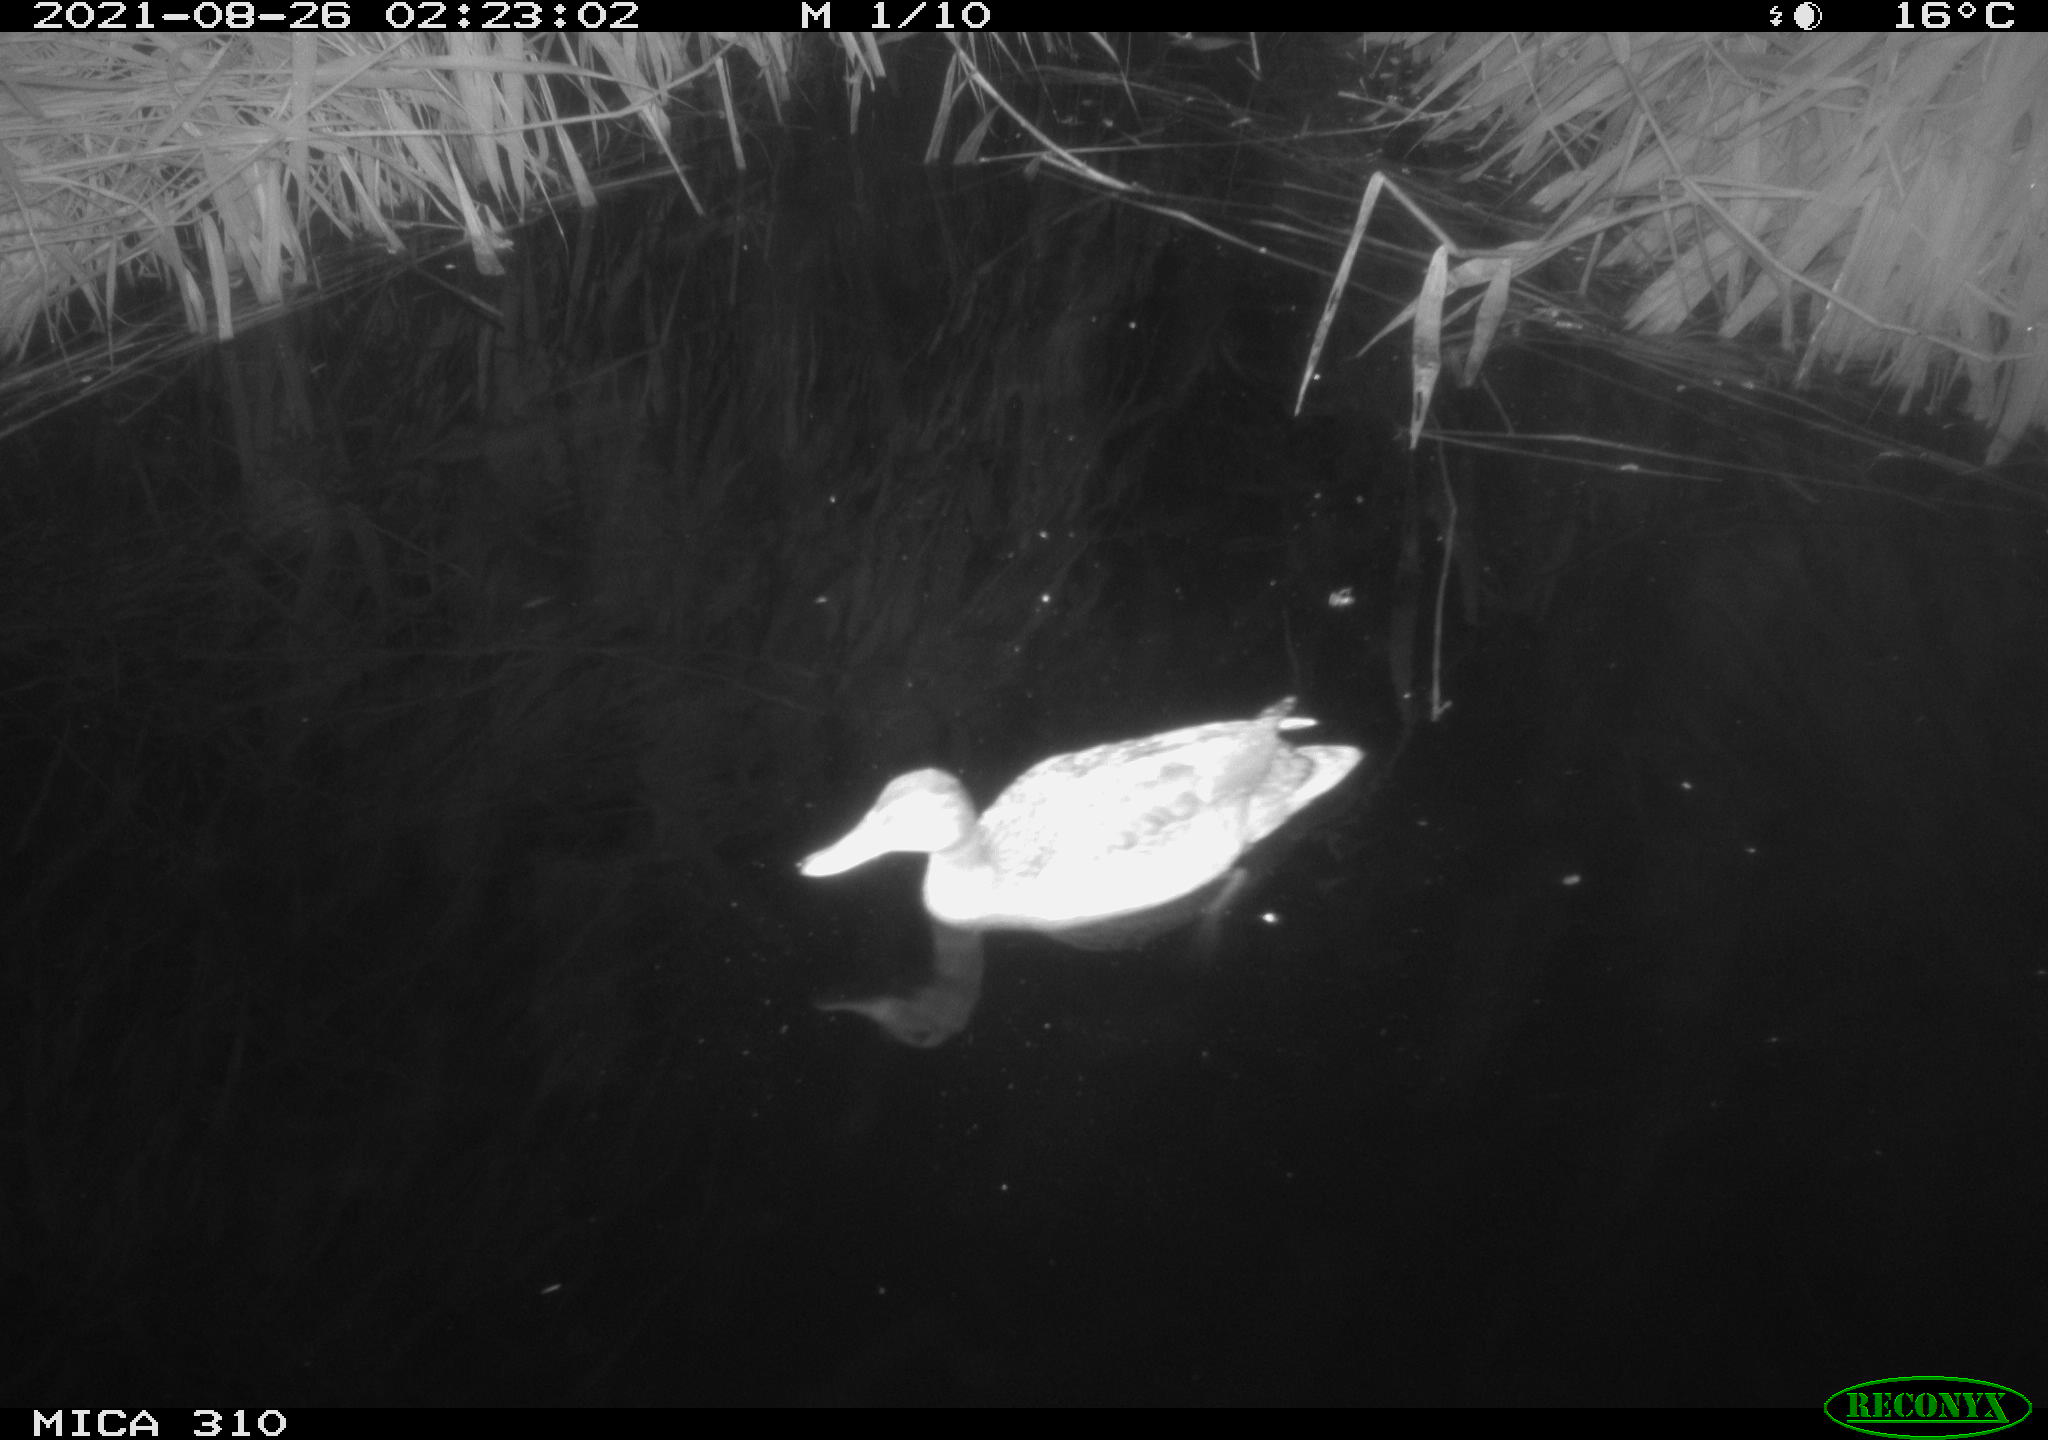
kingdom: Animalia
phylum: Chordata
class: Aves
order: Anseriformes
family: Anatidae
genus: Anas
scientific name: Anas platyrhynchos
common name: Mallard
